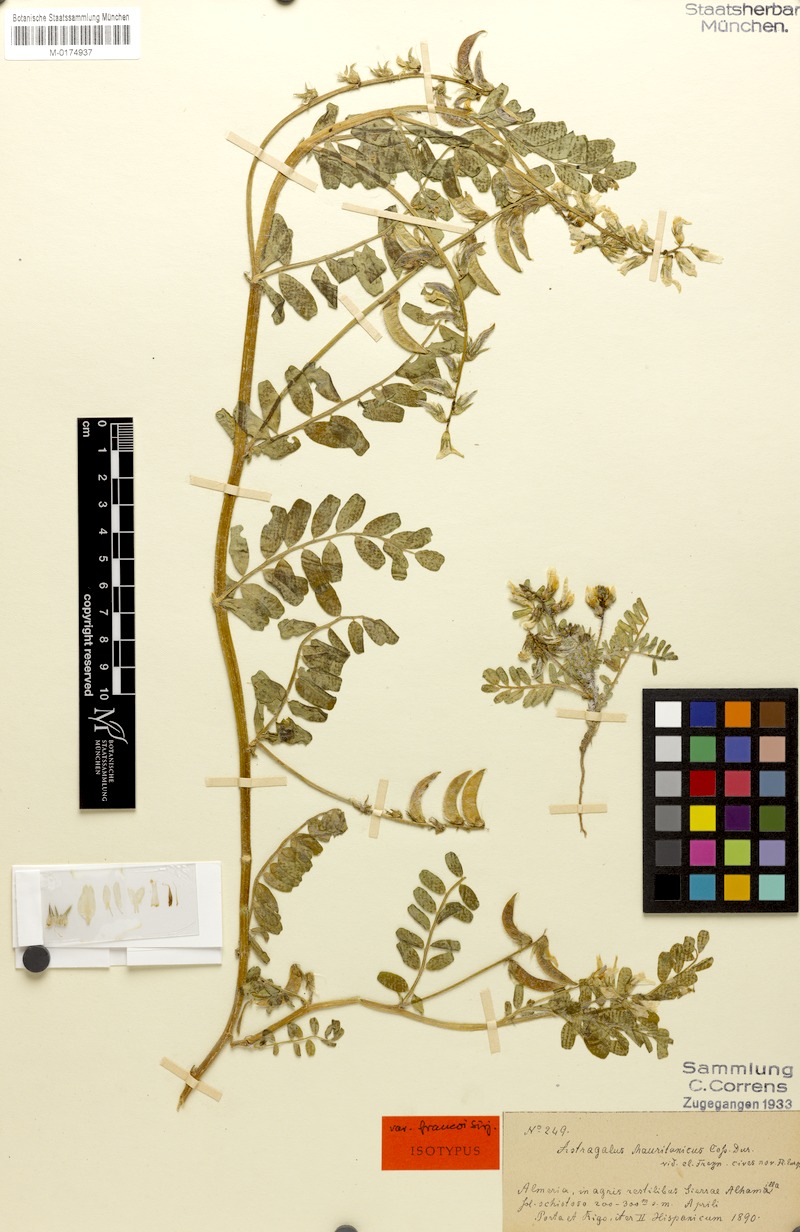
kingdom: Plantae
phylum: Tracheophyta
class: Magnoliopsida
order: Fabales
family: Fabaceae
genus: Astragalus
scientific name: Astragalus longidentatus
